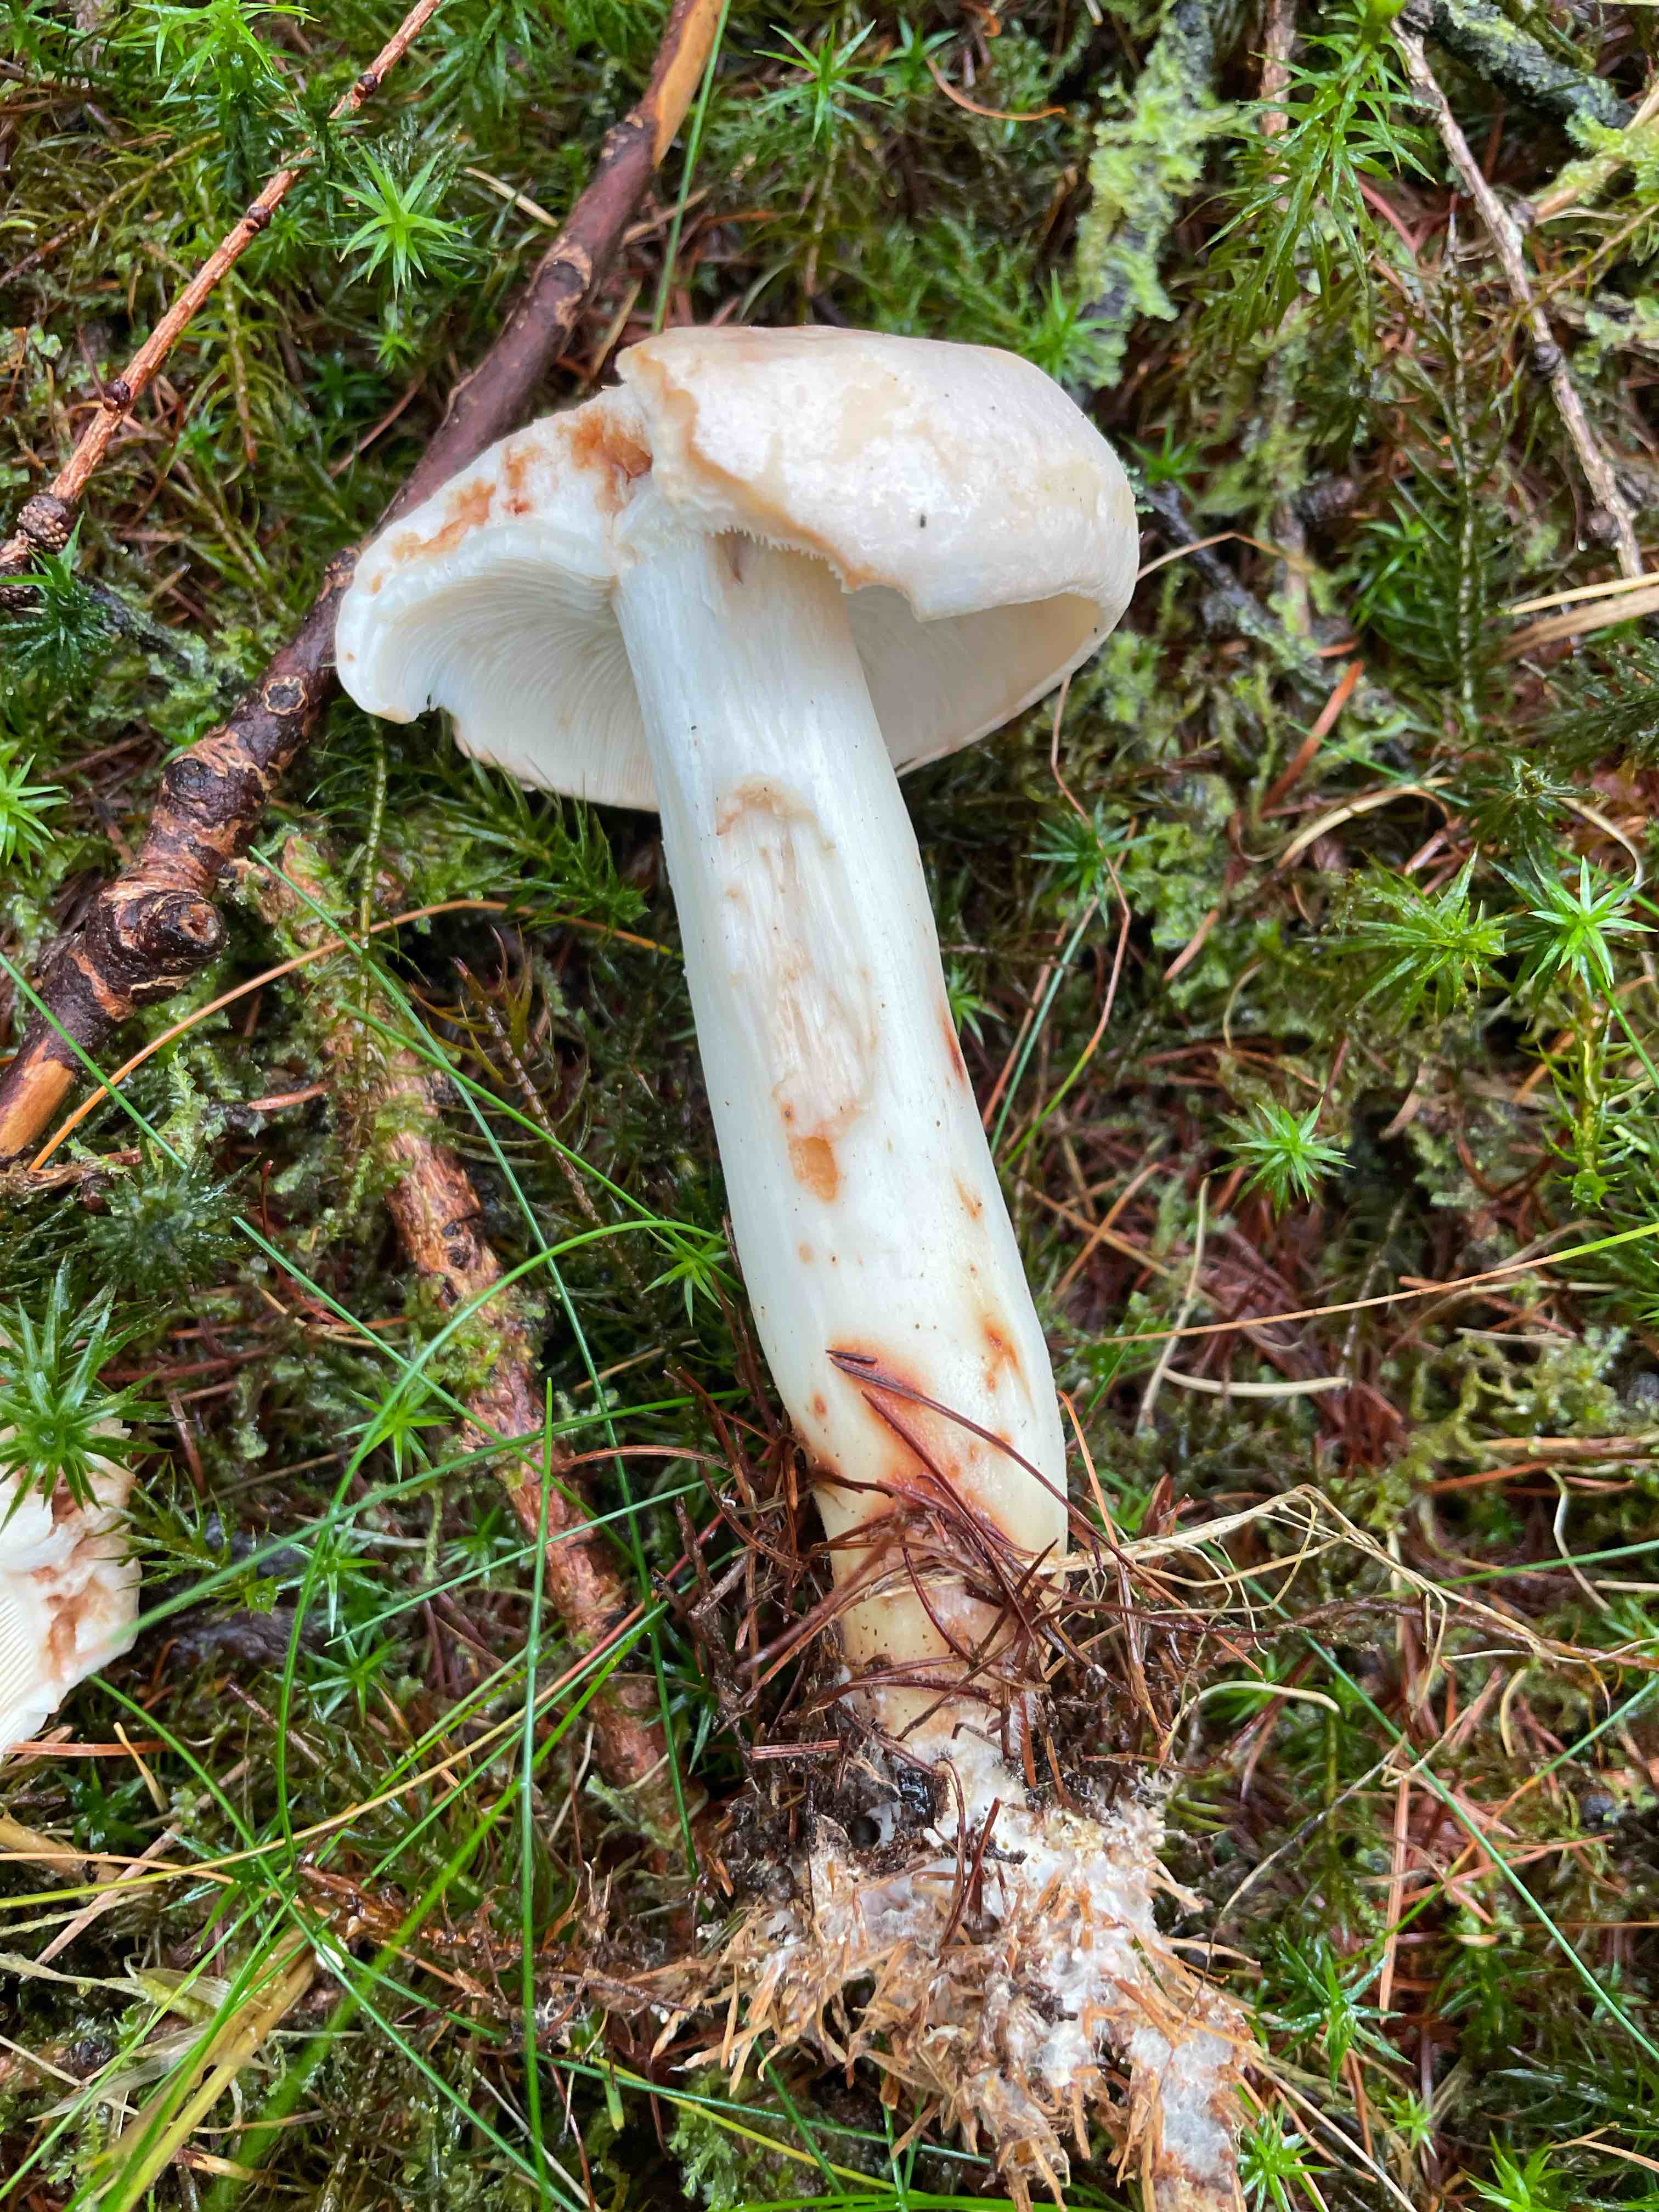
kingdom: Fungi
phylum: Basidiomycota
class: Agaricomycetes
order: Agaricales
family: Omphalotaceae
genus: Rhodocollybia
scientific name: Rhodocollybia maculata
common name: plettet fladhat
